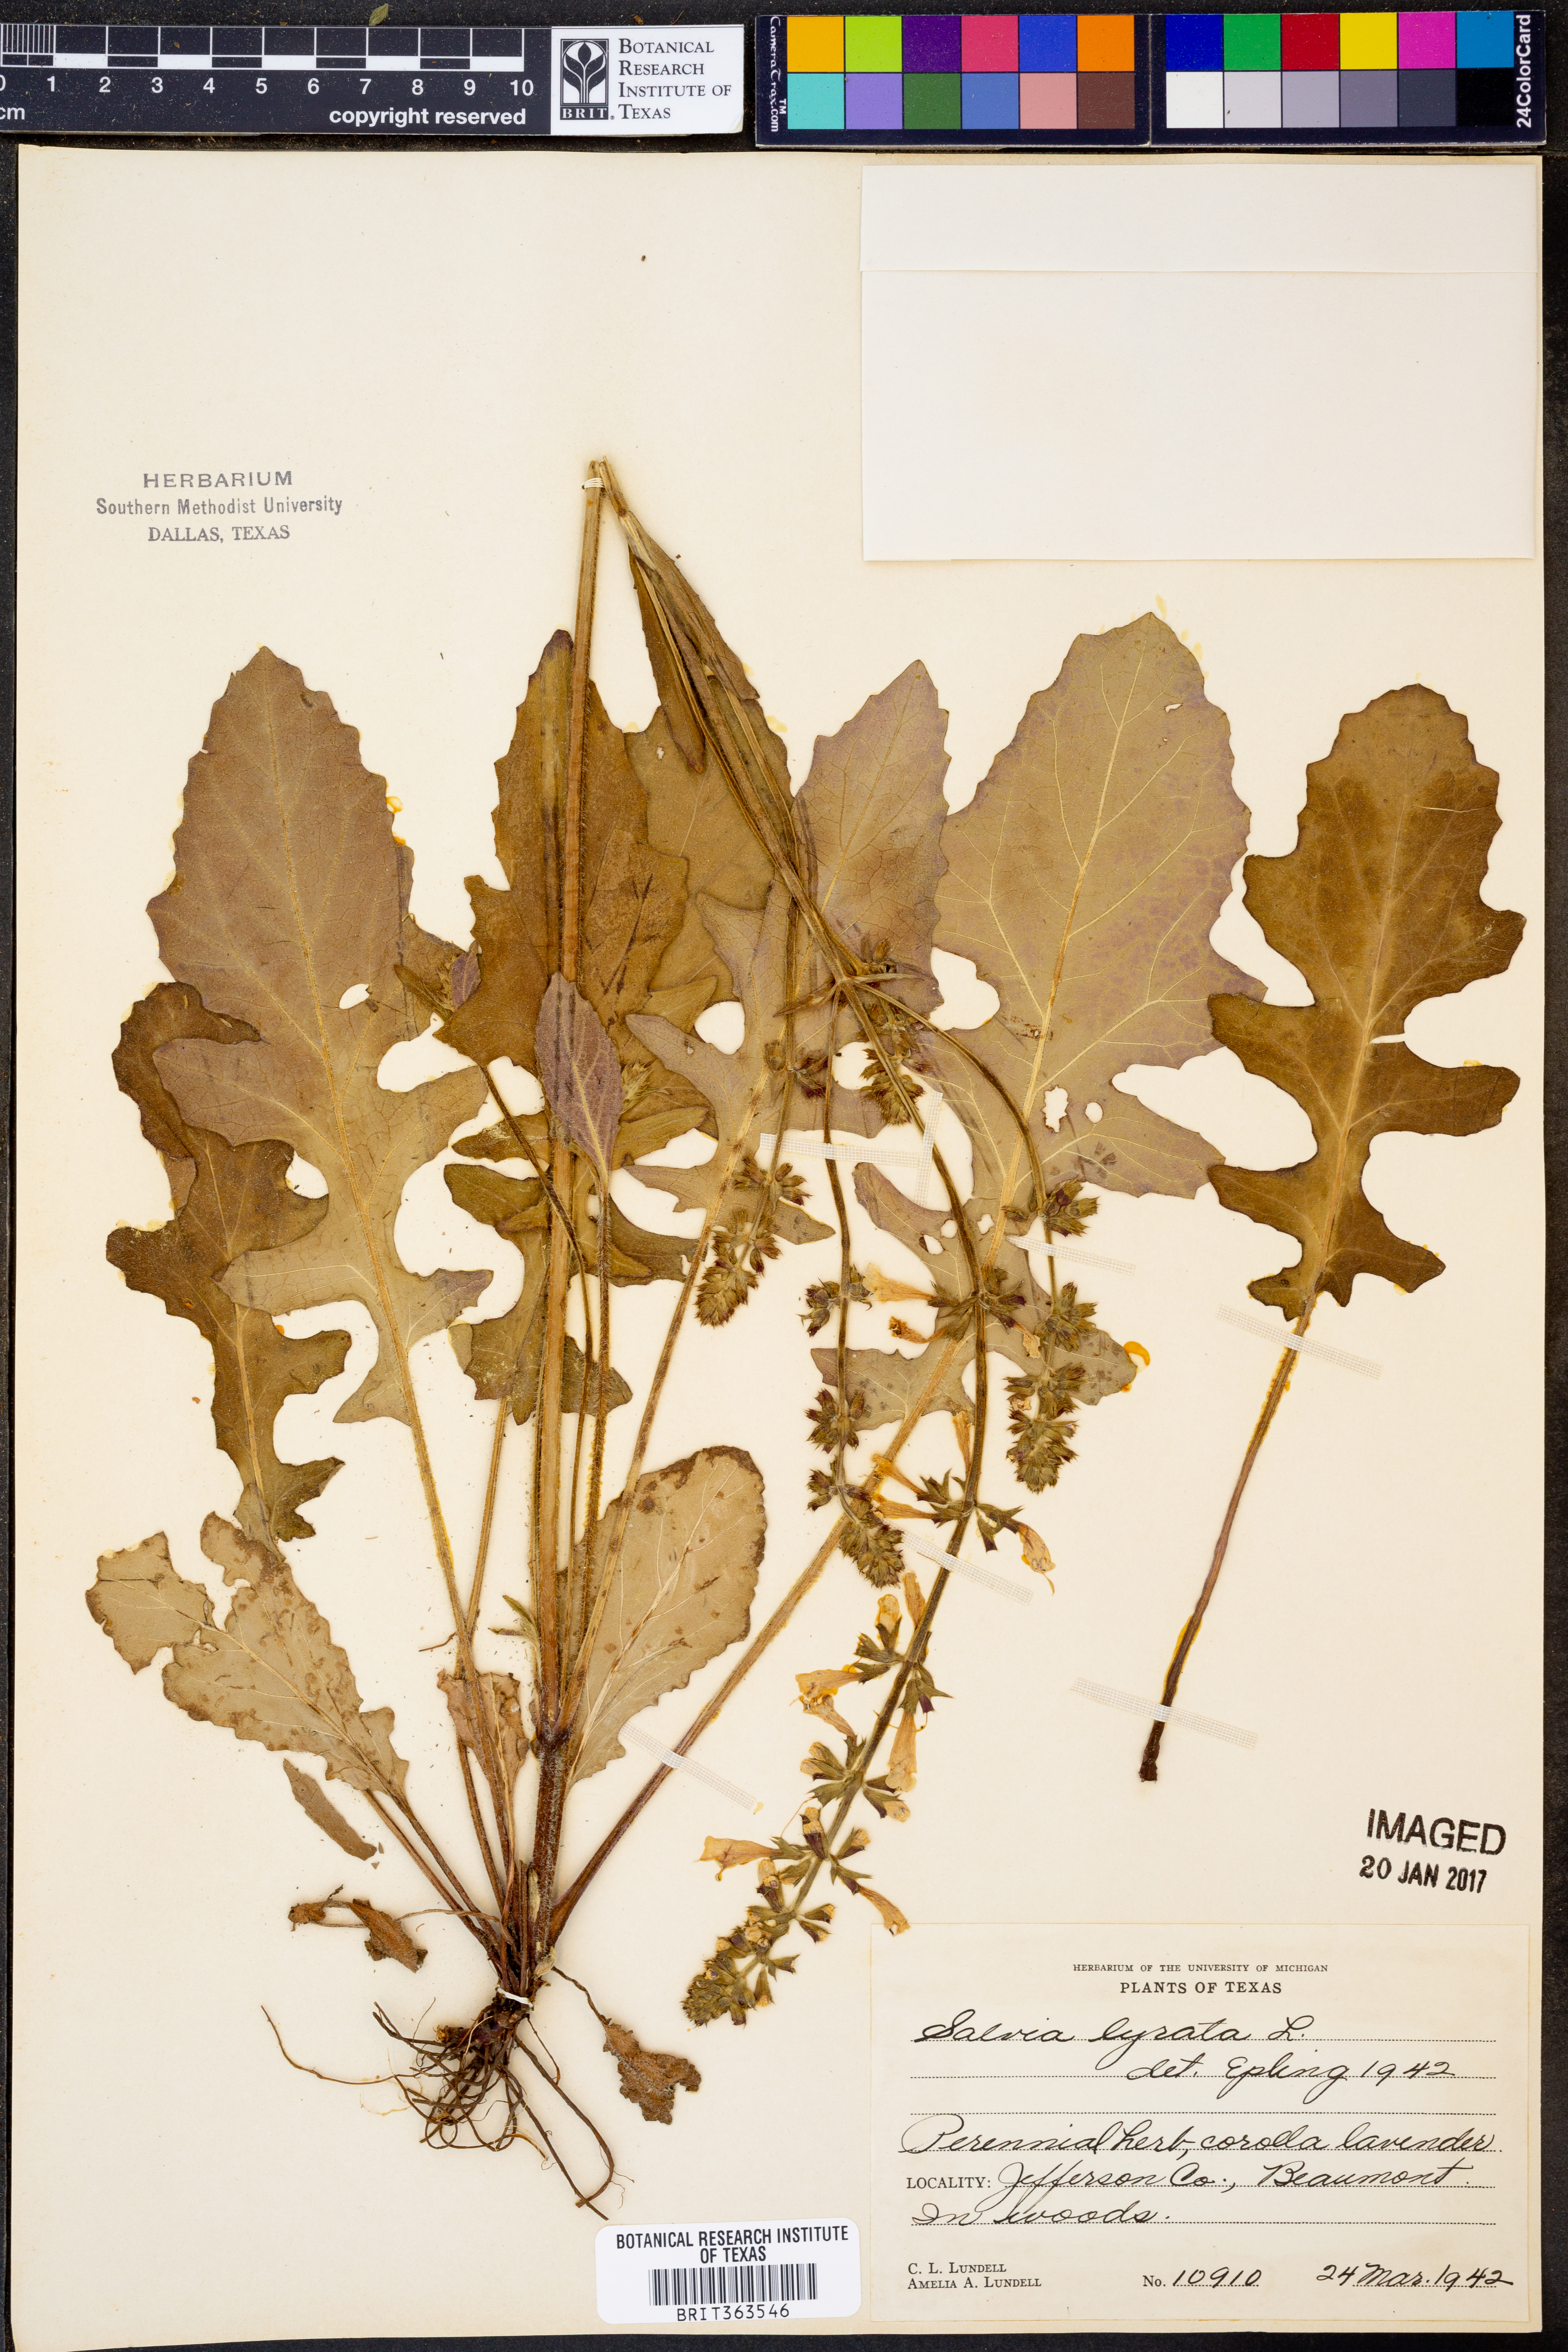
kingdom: Plantae
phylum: Tracheophyta
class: Magnoliopsida
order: Lamiales
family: Lamiaceae
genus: Salvia
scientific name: Salvia lyrata
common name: Cancerweed
